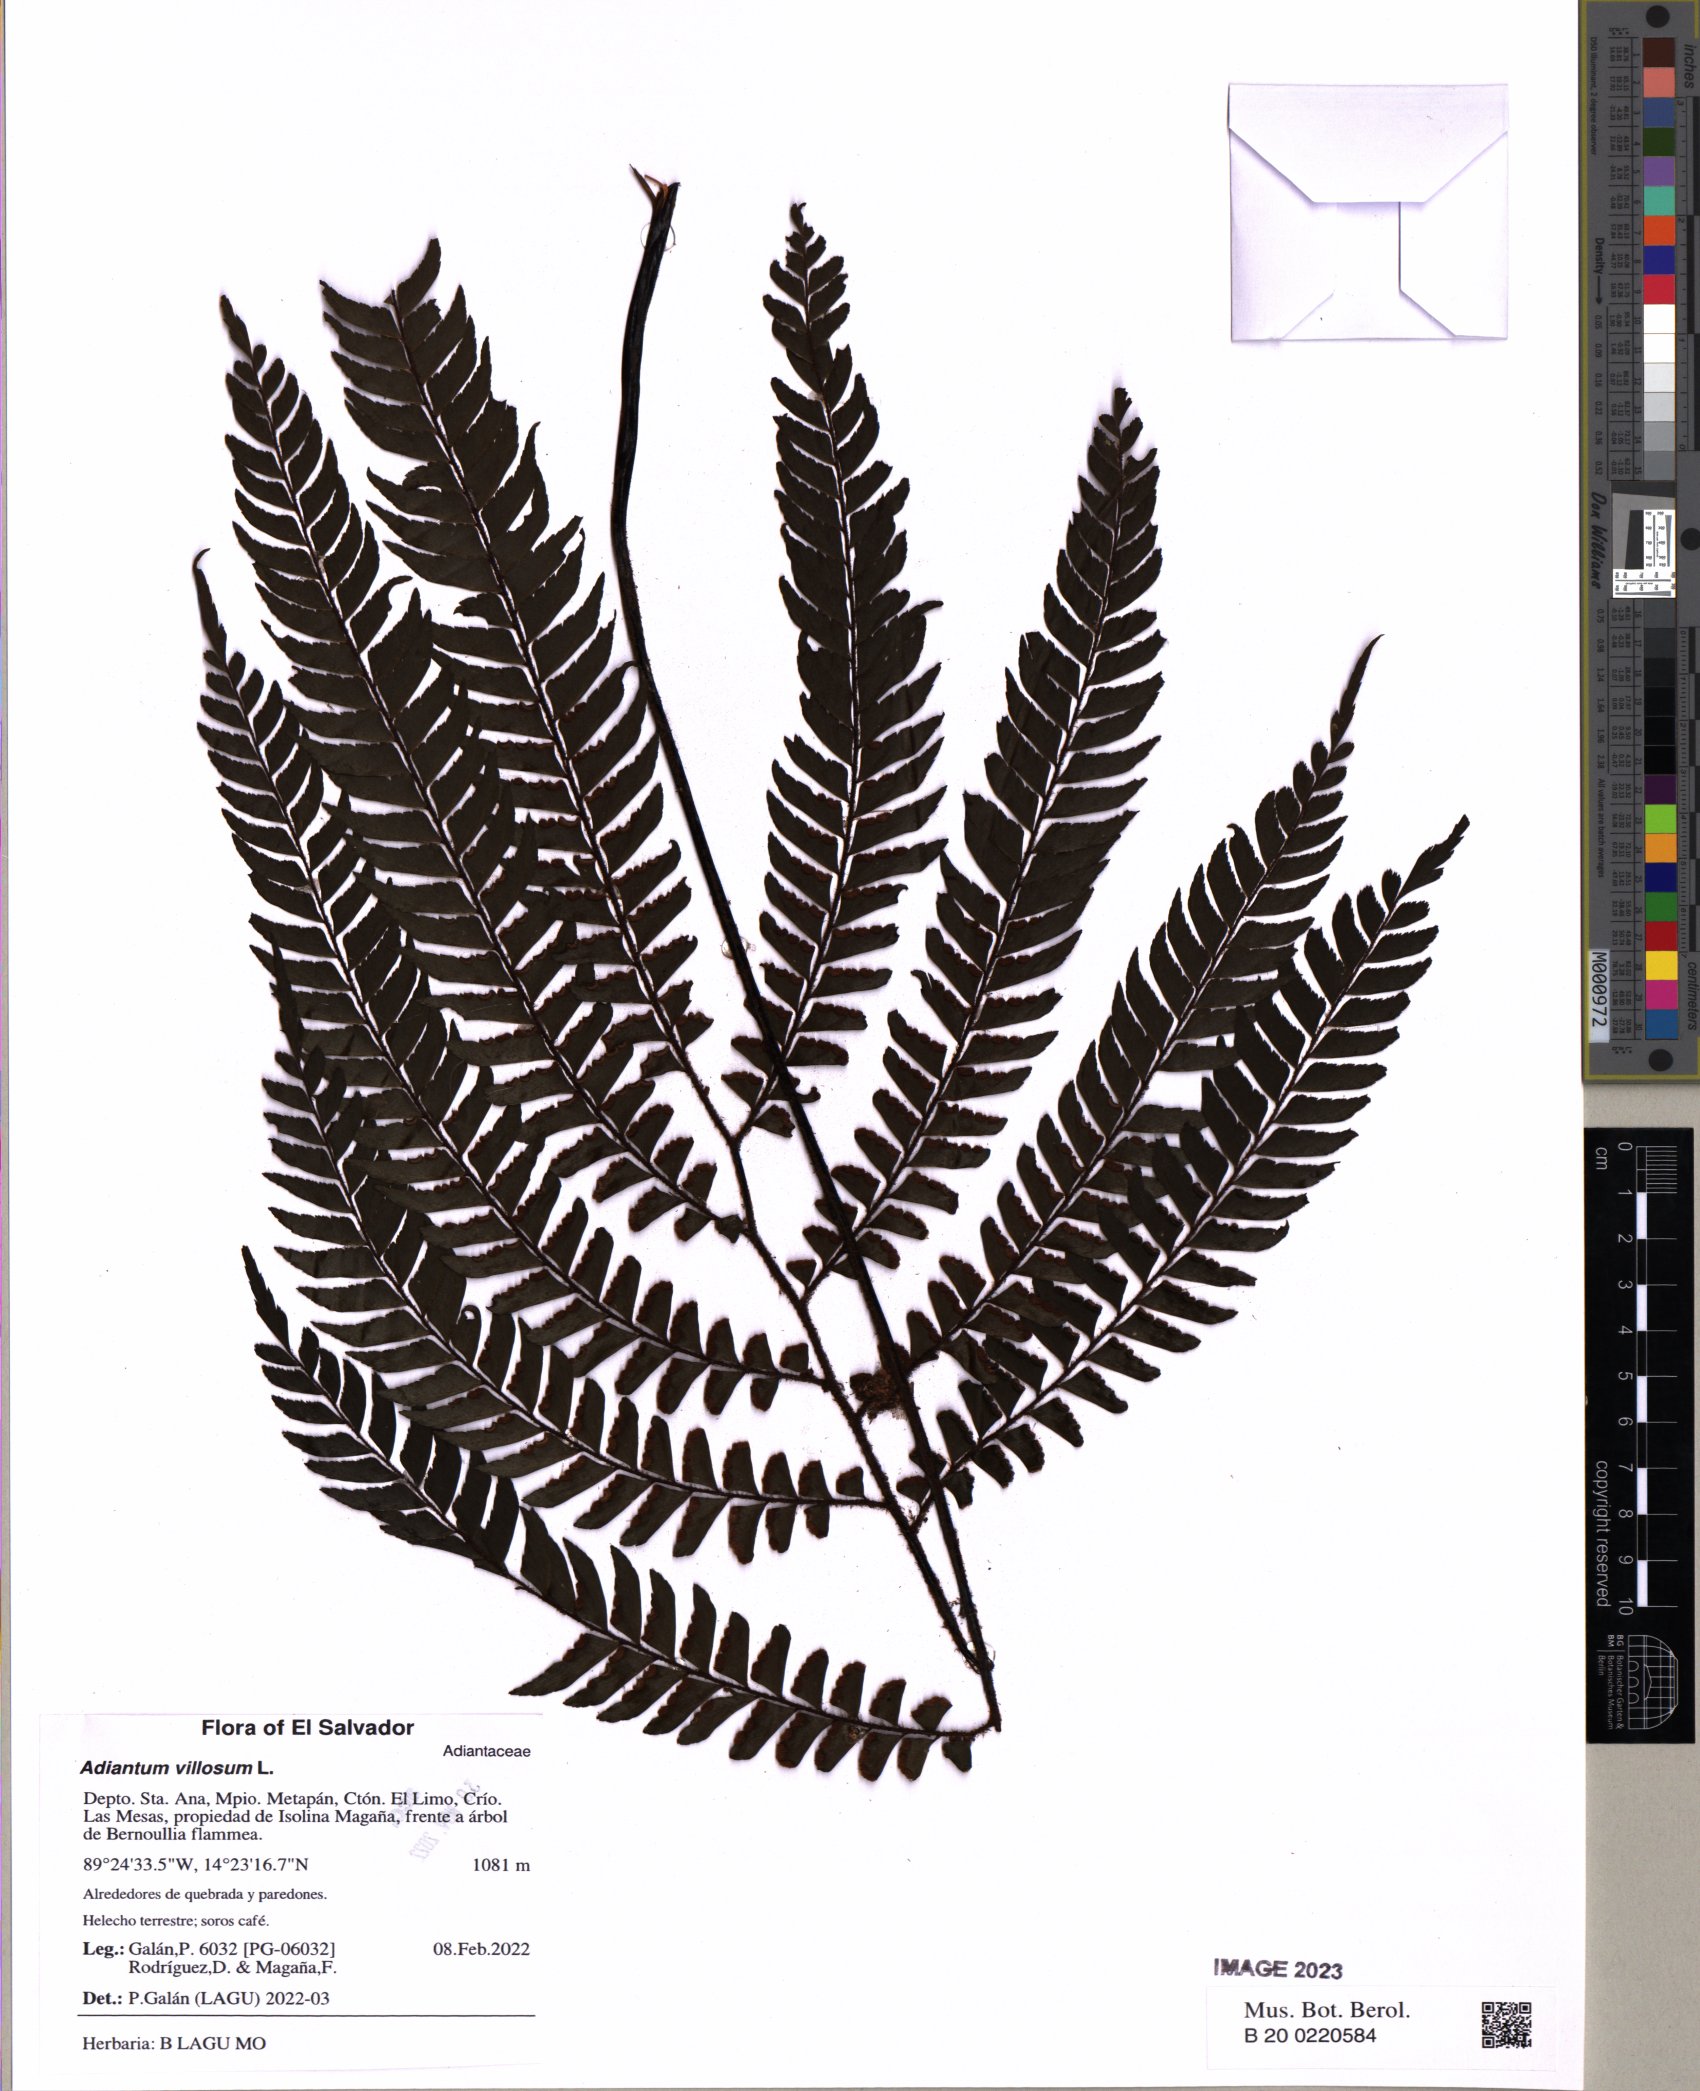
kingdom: Plantae
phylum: Tracheophyta
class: Polypodiopsida
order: Polypodiales
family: Pteridaceae
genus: Adiantum
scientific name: Adiantum villosum
